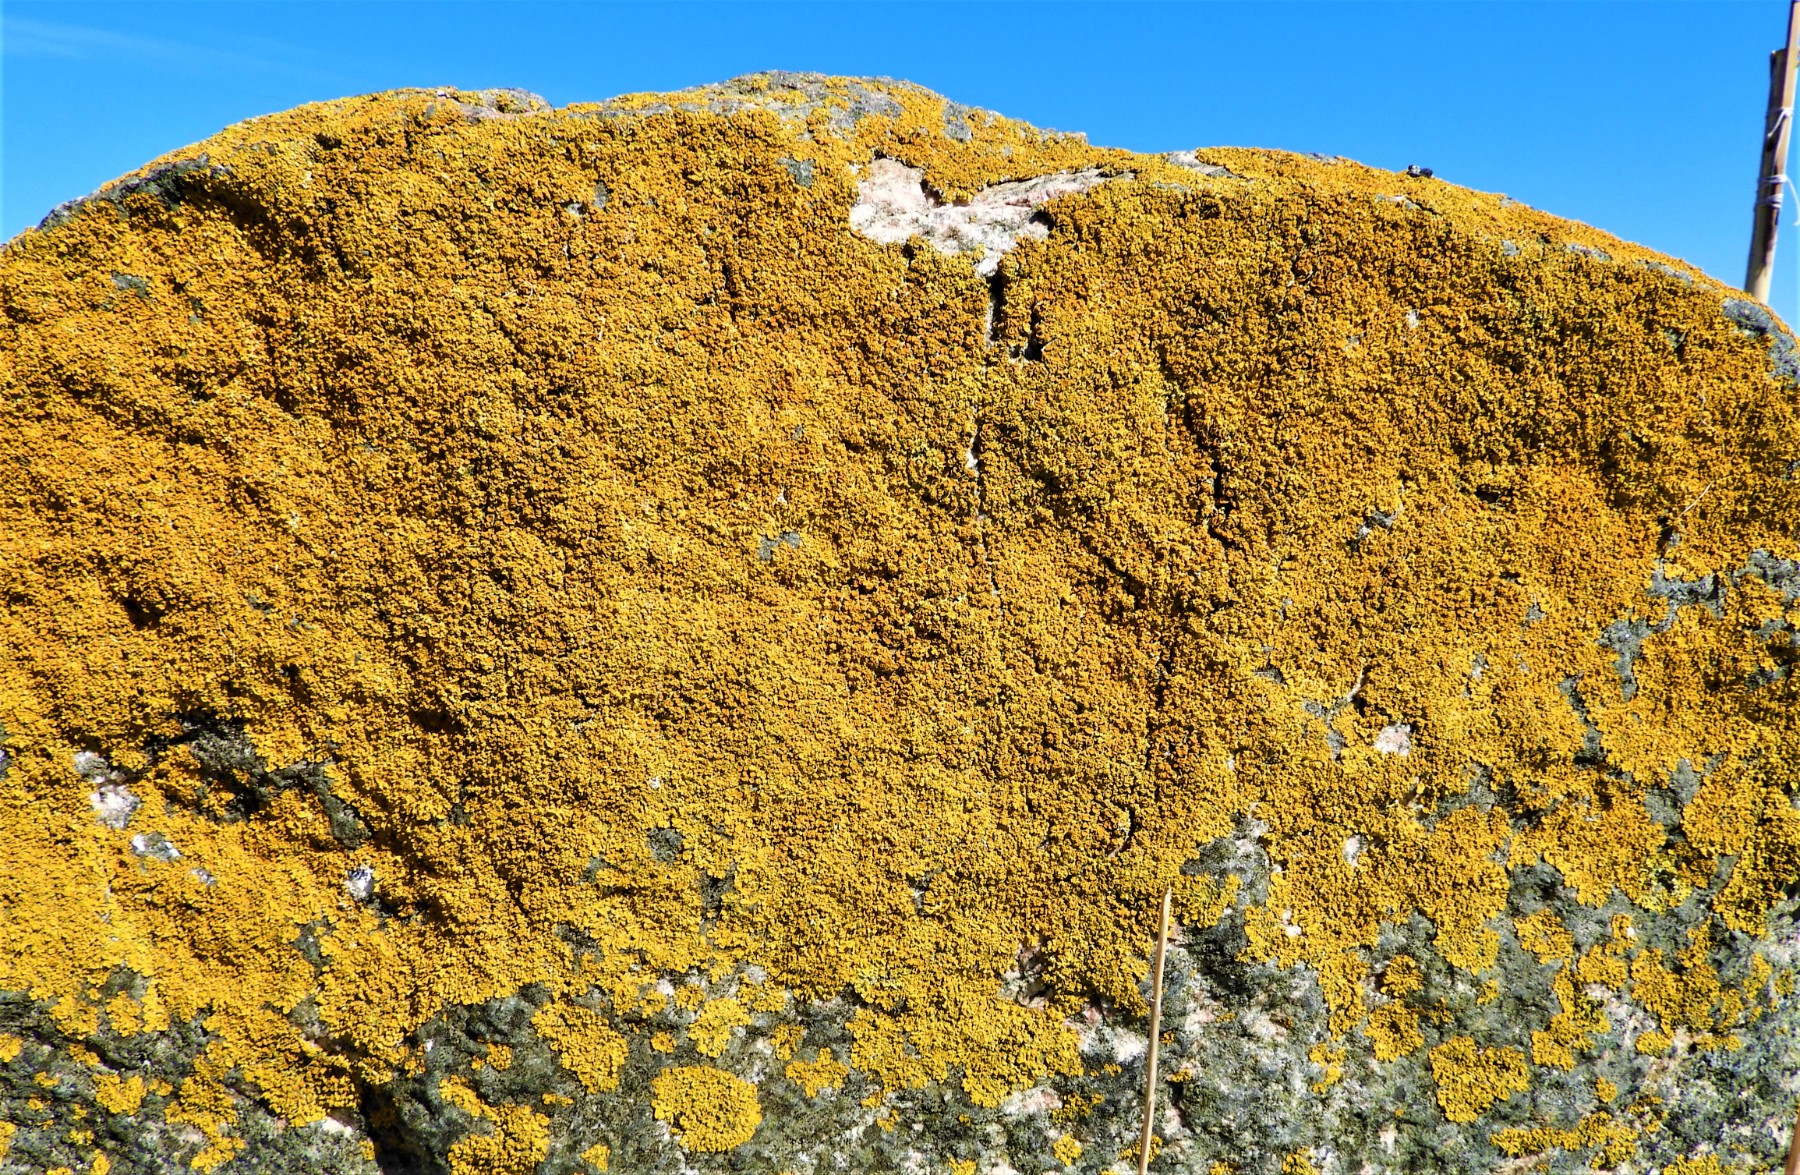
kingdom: Fungi
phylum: Ascomycota
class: Lecanoromycetes
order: Teloschistales
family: Teloschistaceae
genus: Xanthoria
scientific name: Xanthoria parietina
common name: almindelig væggelav
